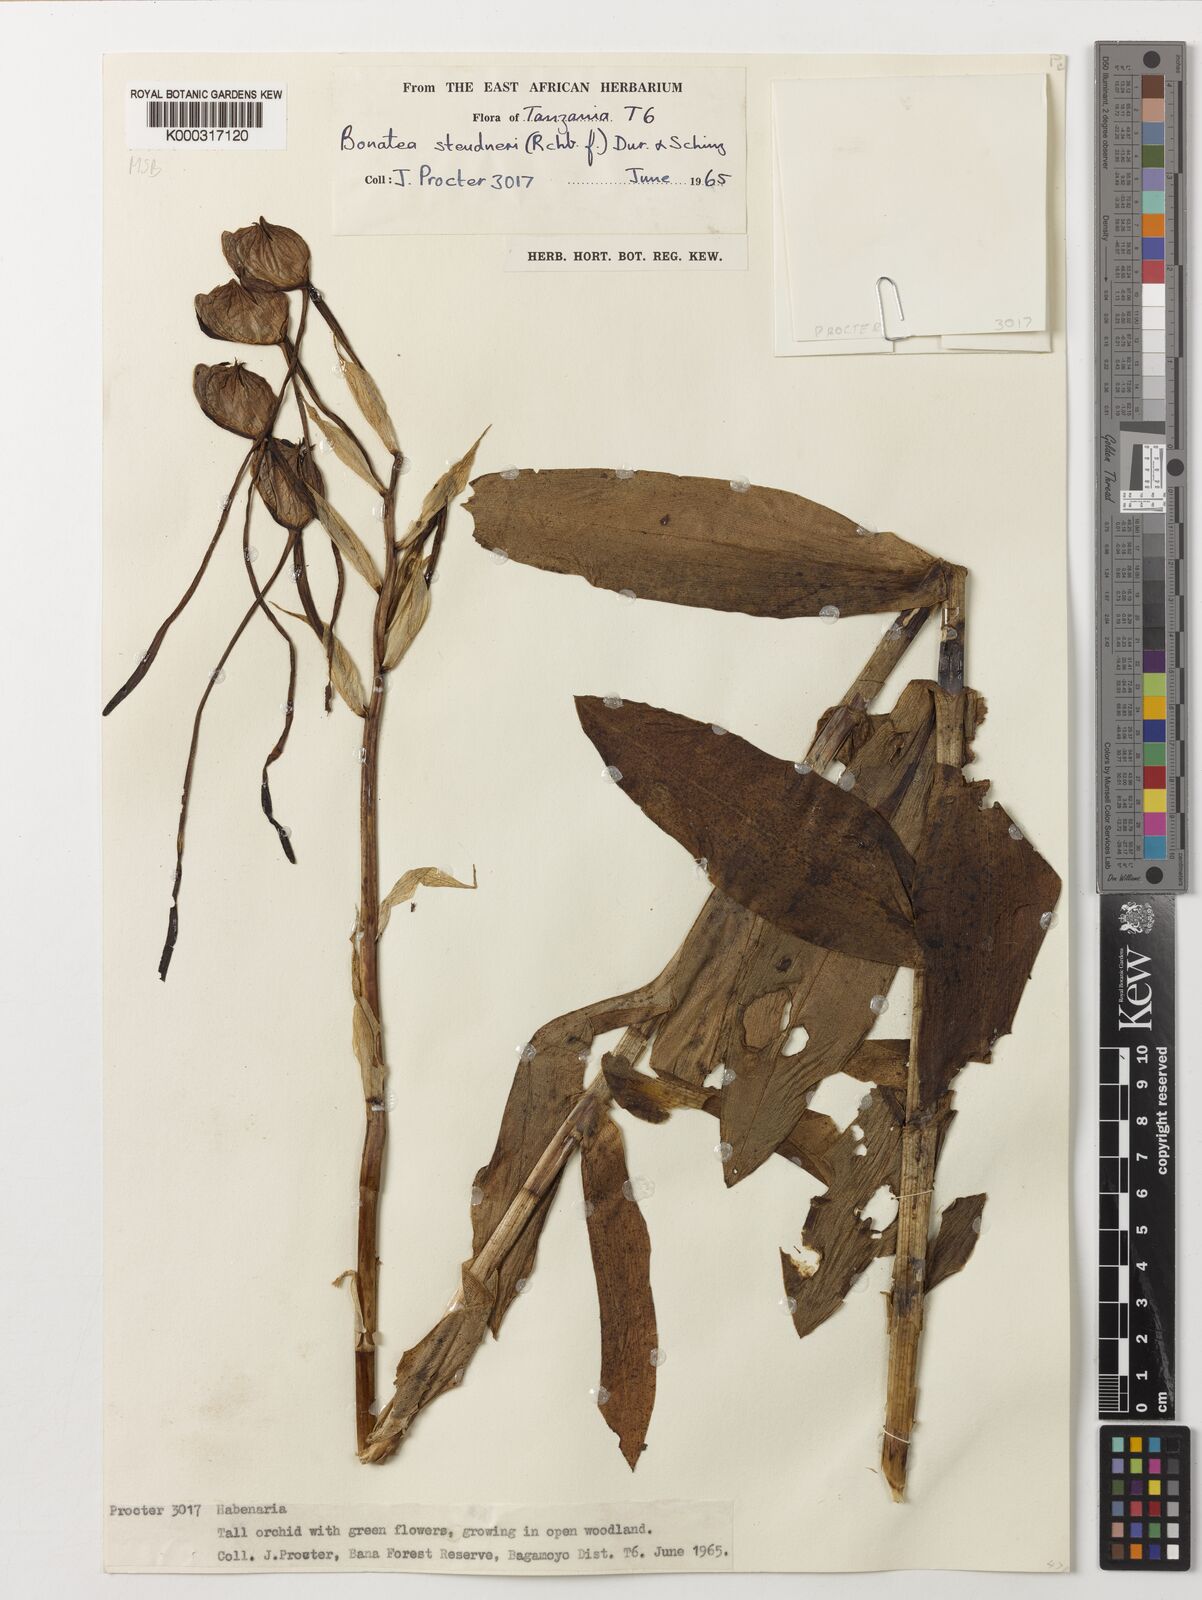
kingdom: Plantae
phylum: Tracheophyta
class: Liliopsida
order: Asparagales
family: Orchidaceae
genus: Bonatea
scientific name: Bonatea steudneri
